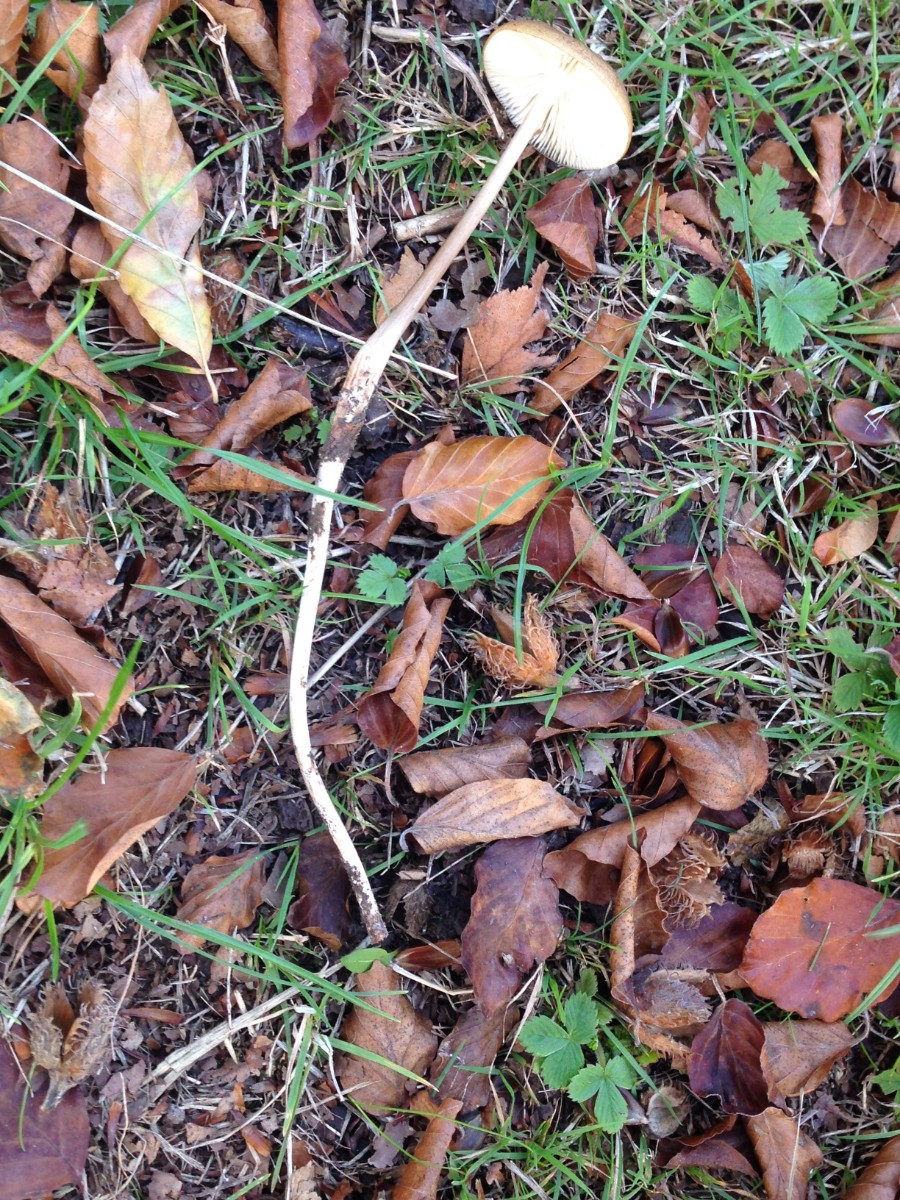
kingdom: Fungi
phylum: Basidiomycota
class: Agaricomycetes
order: Agaricales
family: Physalacriaceae
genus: Hymenopellis
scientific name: Hymenopellis radicata
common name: almindelig pælerodshat
